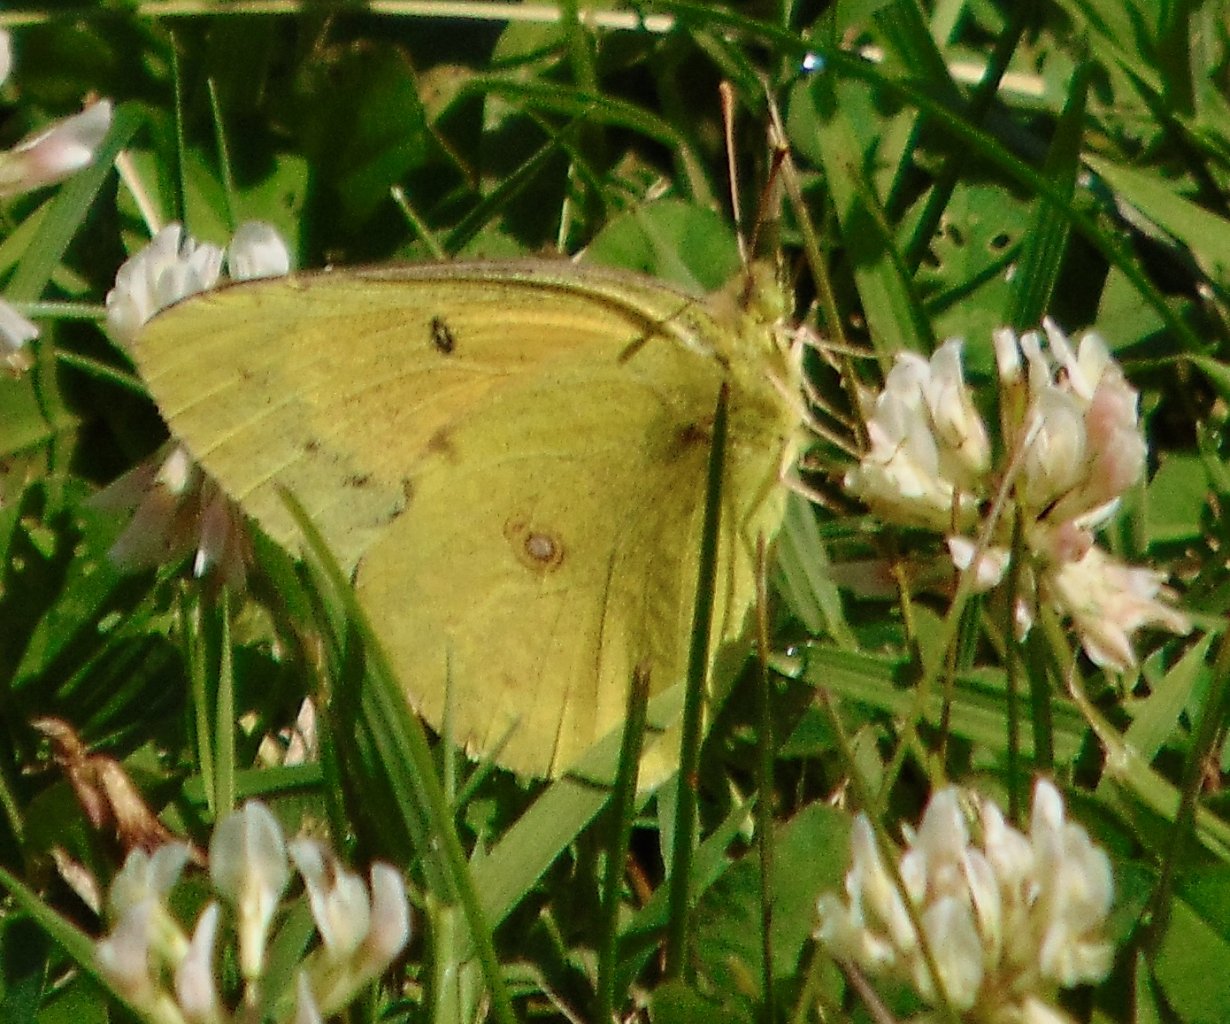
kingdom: Animalia
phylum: Arthropoda
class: Insecta
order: Lepidoptera
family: Pieridae
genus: Colias
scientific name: Colias eurytheme
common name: Orange Sulphur
